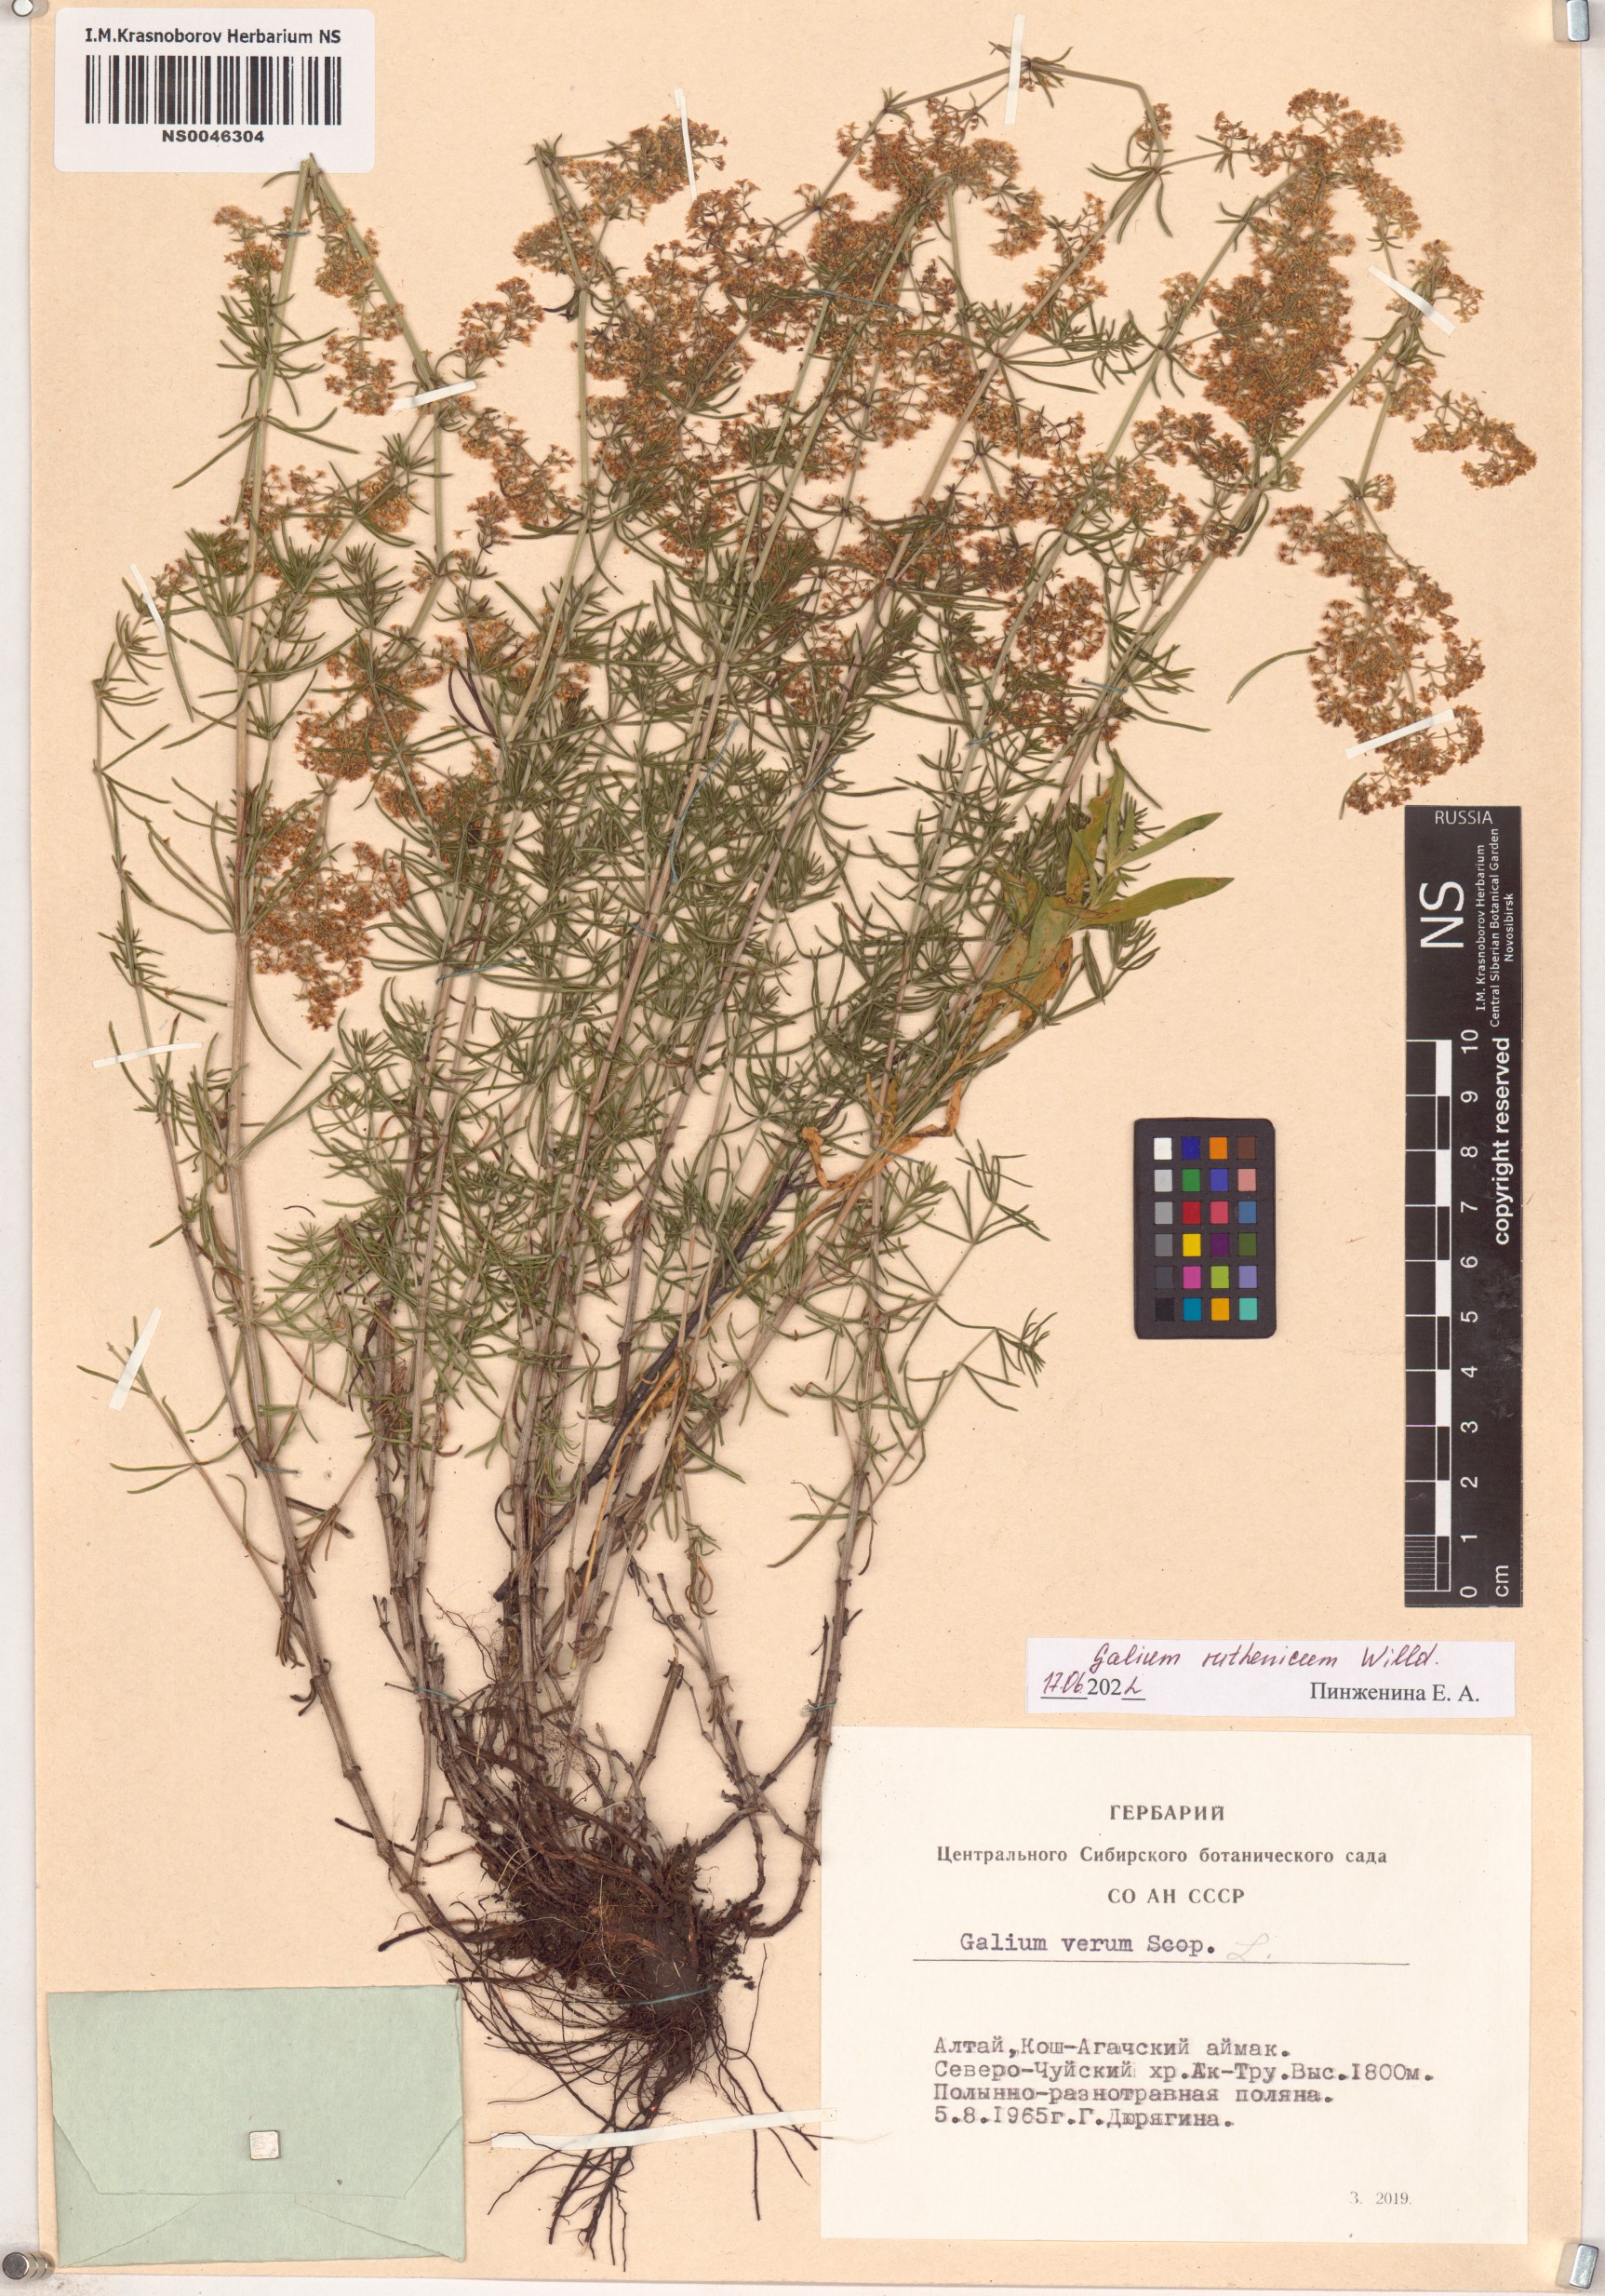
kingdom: Plantae
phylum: Tracheophyta
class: Magnoliopsida
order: Gentianales
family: Rubiaceae
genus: Galium
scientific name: Galium verum
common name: Lady's bedstraw
